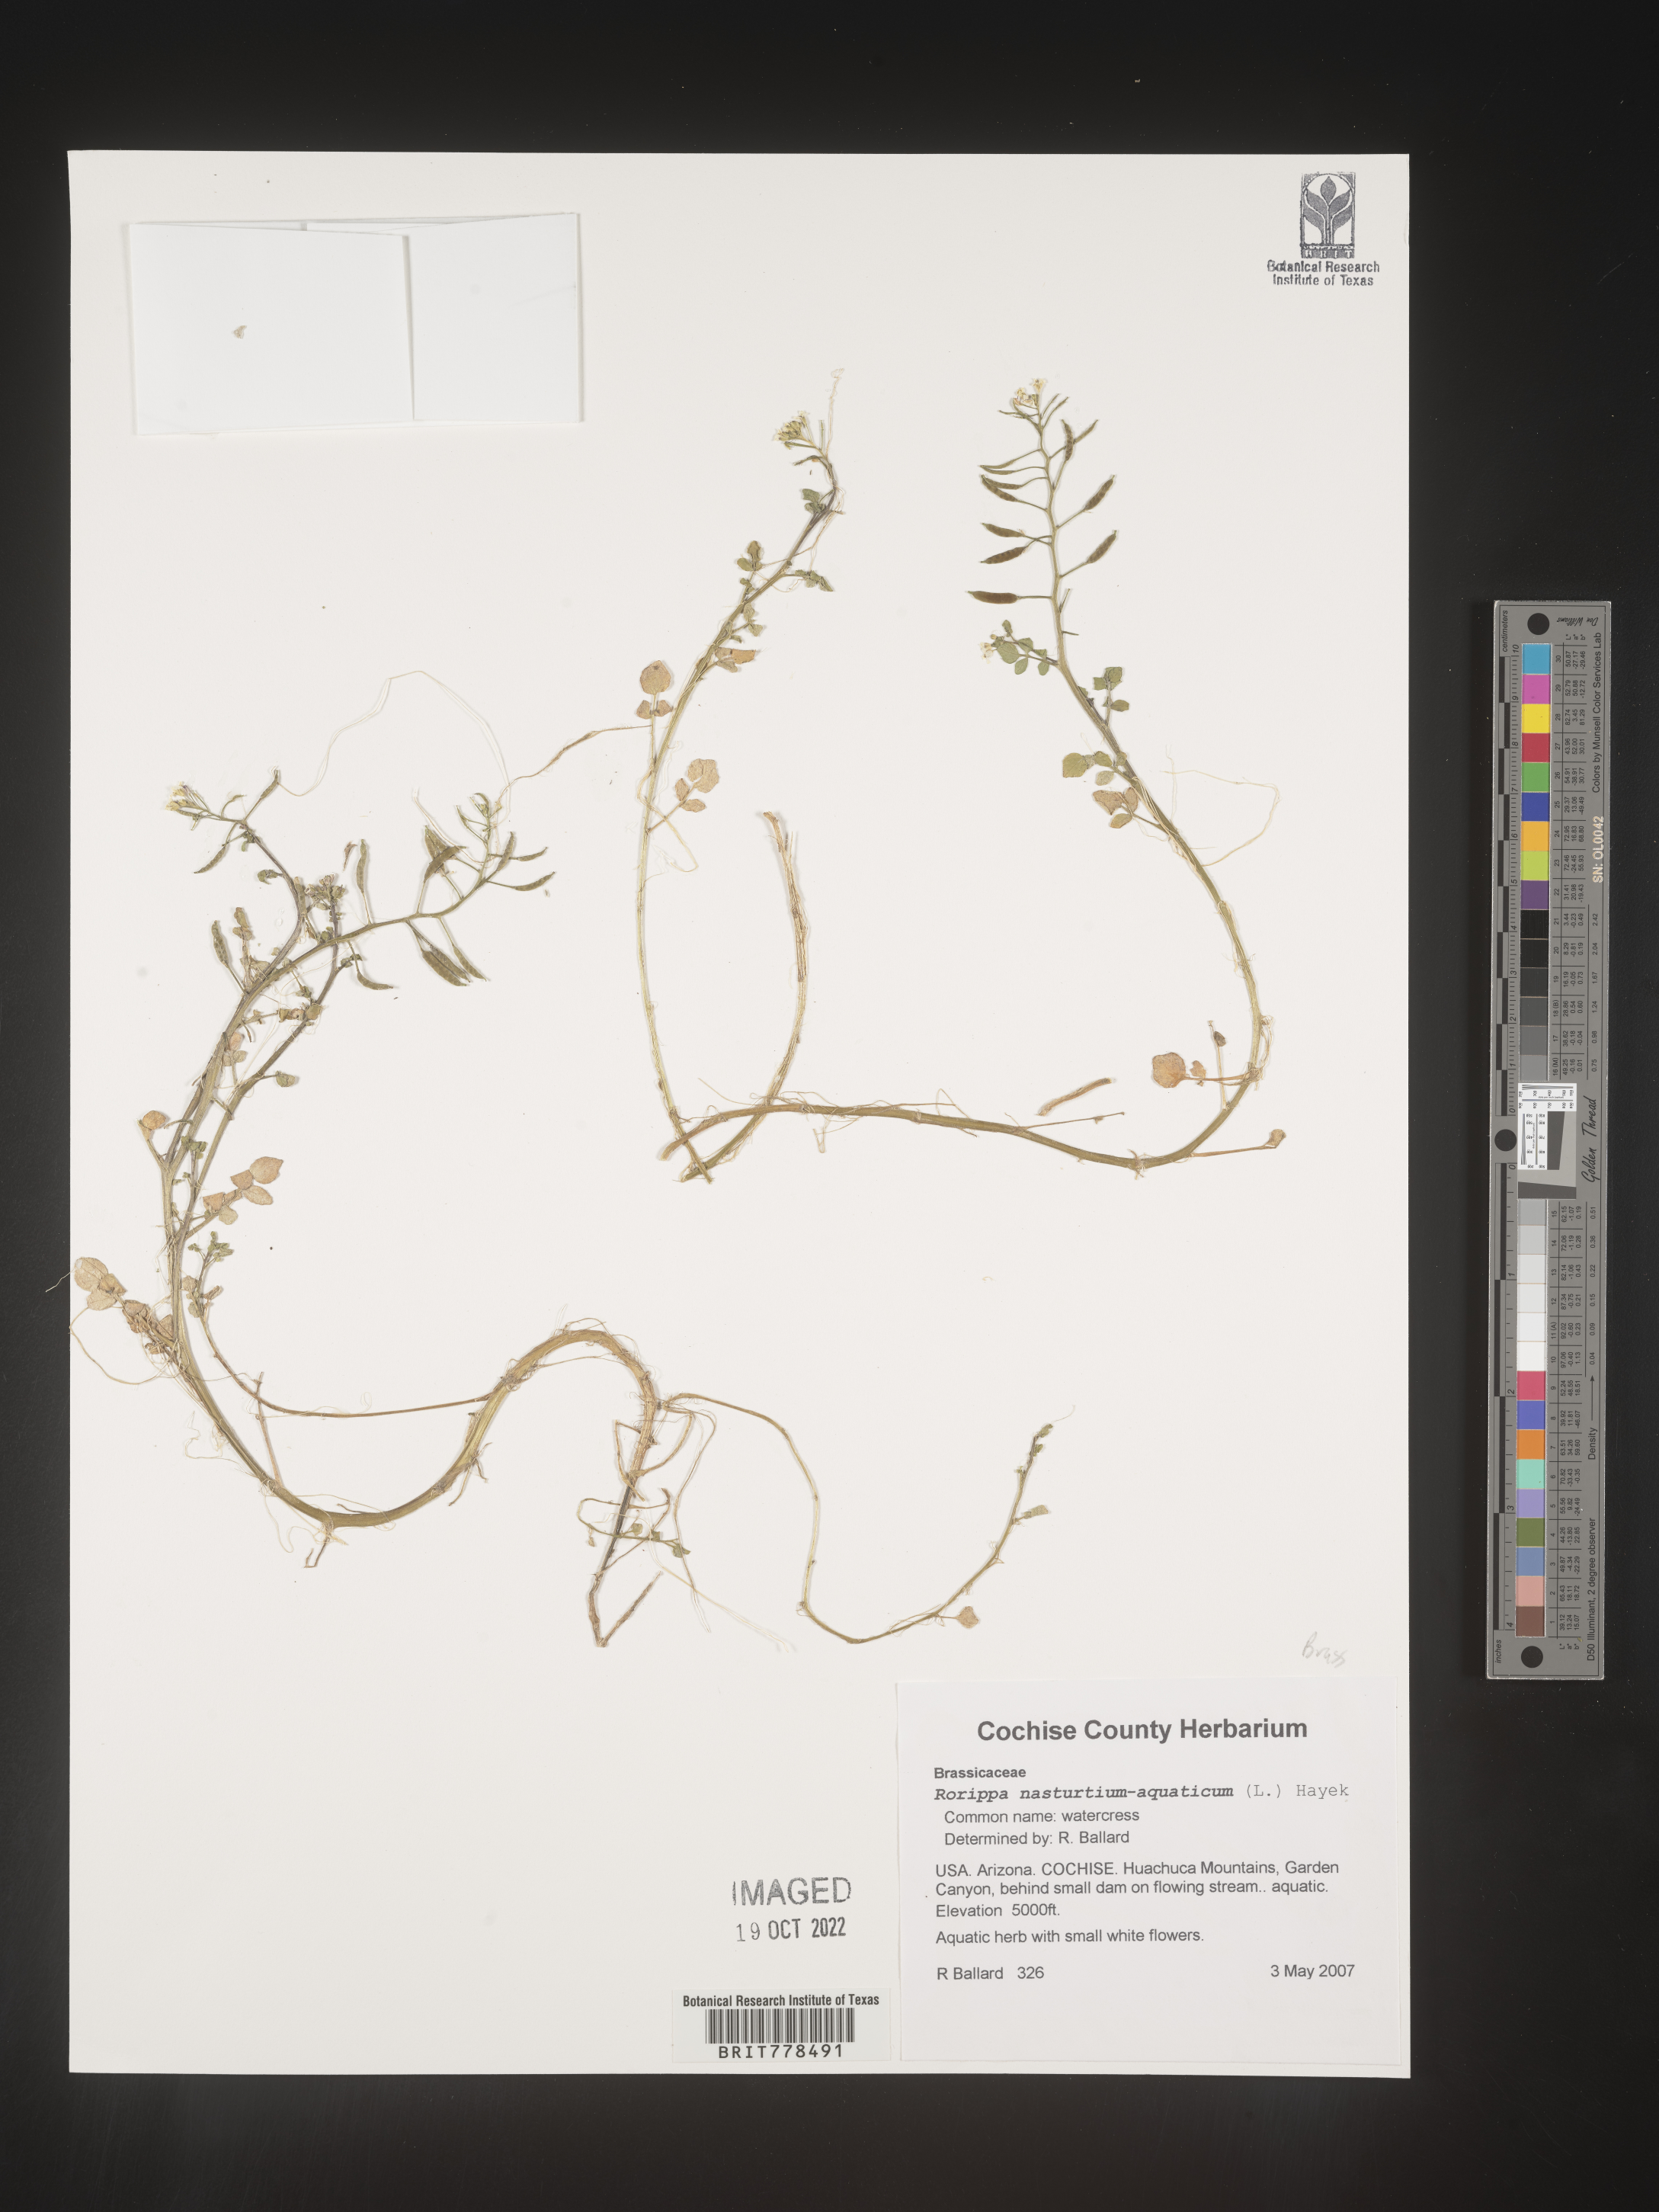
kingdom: Plantae
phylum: Tracheophyta
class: Magnoliopsida
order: Brassicales
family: Brassicaceae
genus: Nasturtium
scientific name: Nasturtium officinale
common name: Watercress
